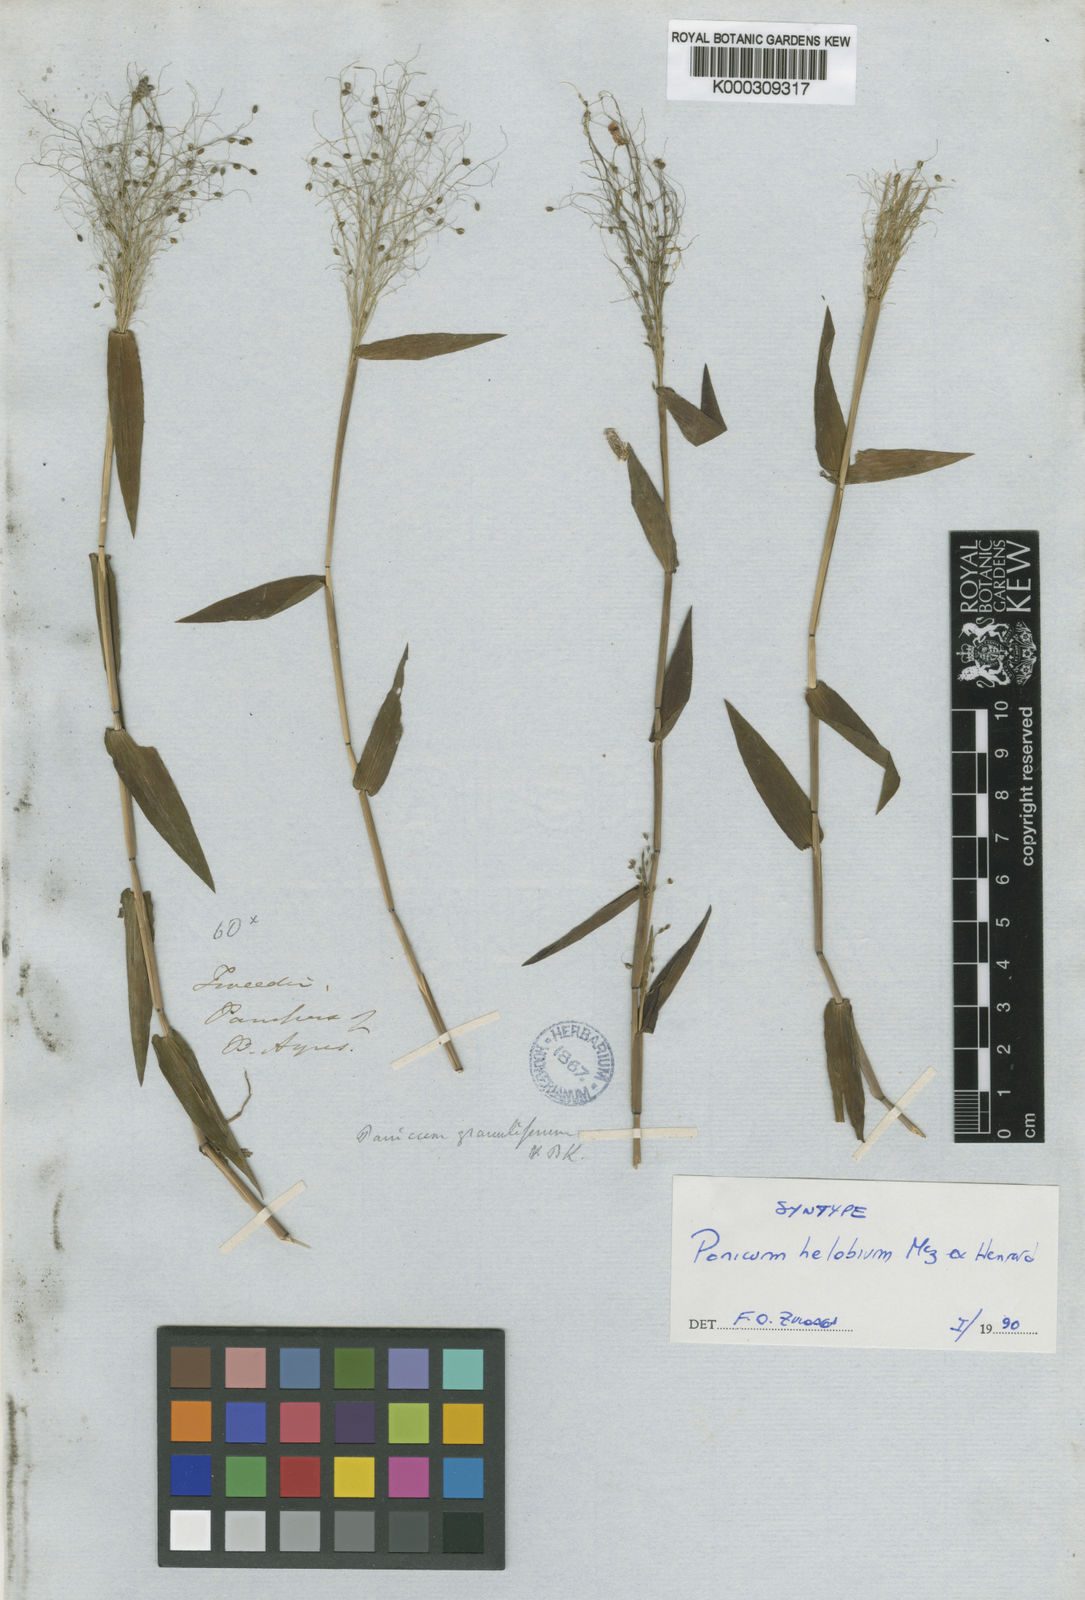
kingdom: Plantae
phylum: Tracheophyta
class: Liliopsida
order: Poales
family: Poaceae
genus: Trichanthecium
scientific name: Trichanthecium schwackeanum
